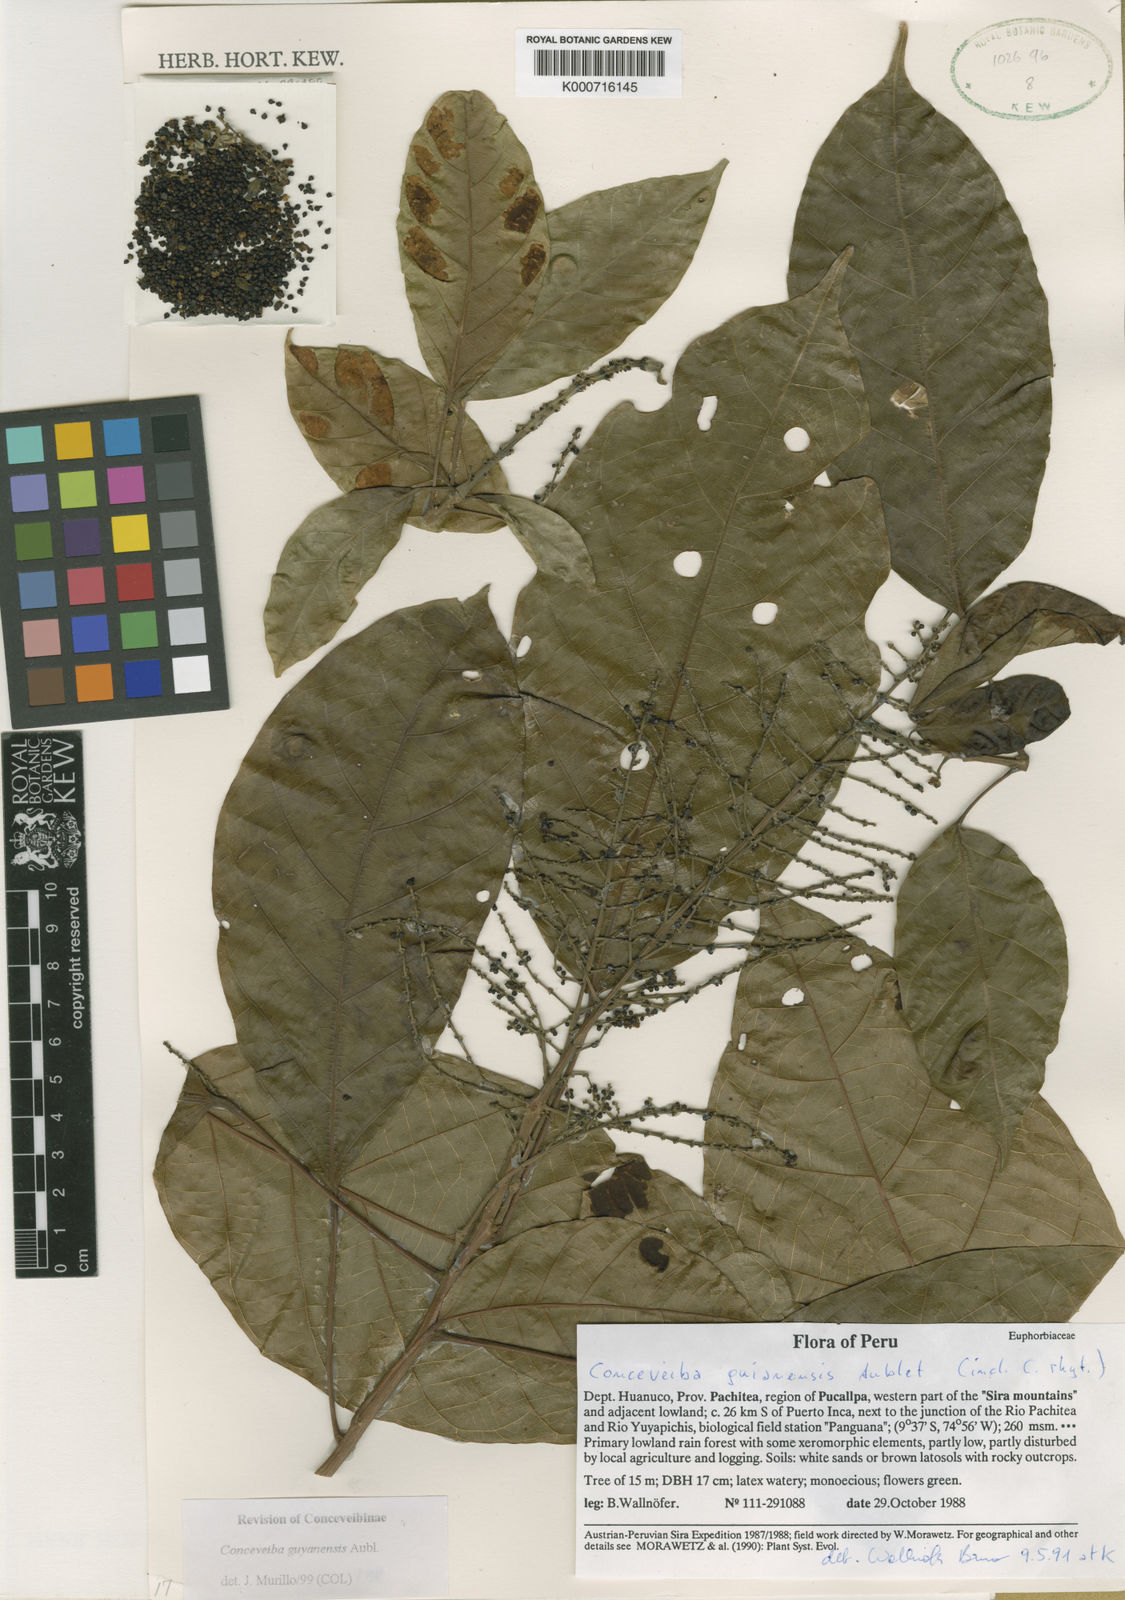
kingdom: Plantae
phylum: Tracheophyta
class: Magnoliopsida
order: Malpighiales
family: Euphorbiaceae
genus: Conceveiba
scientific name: Conceveiba guianensis
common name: Poatoru
